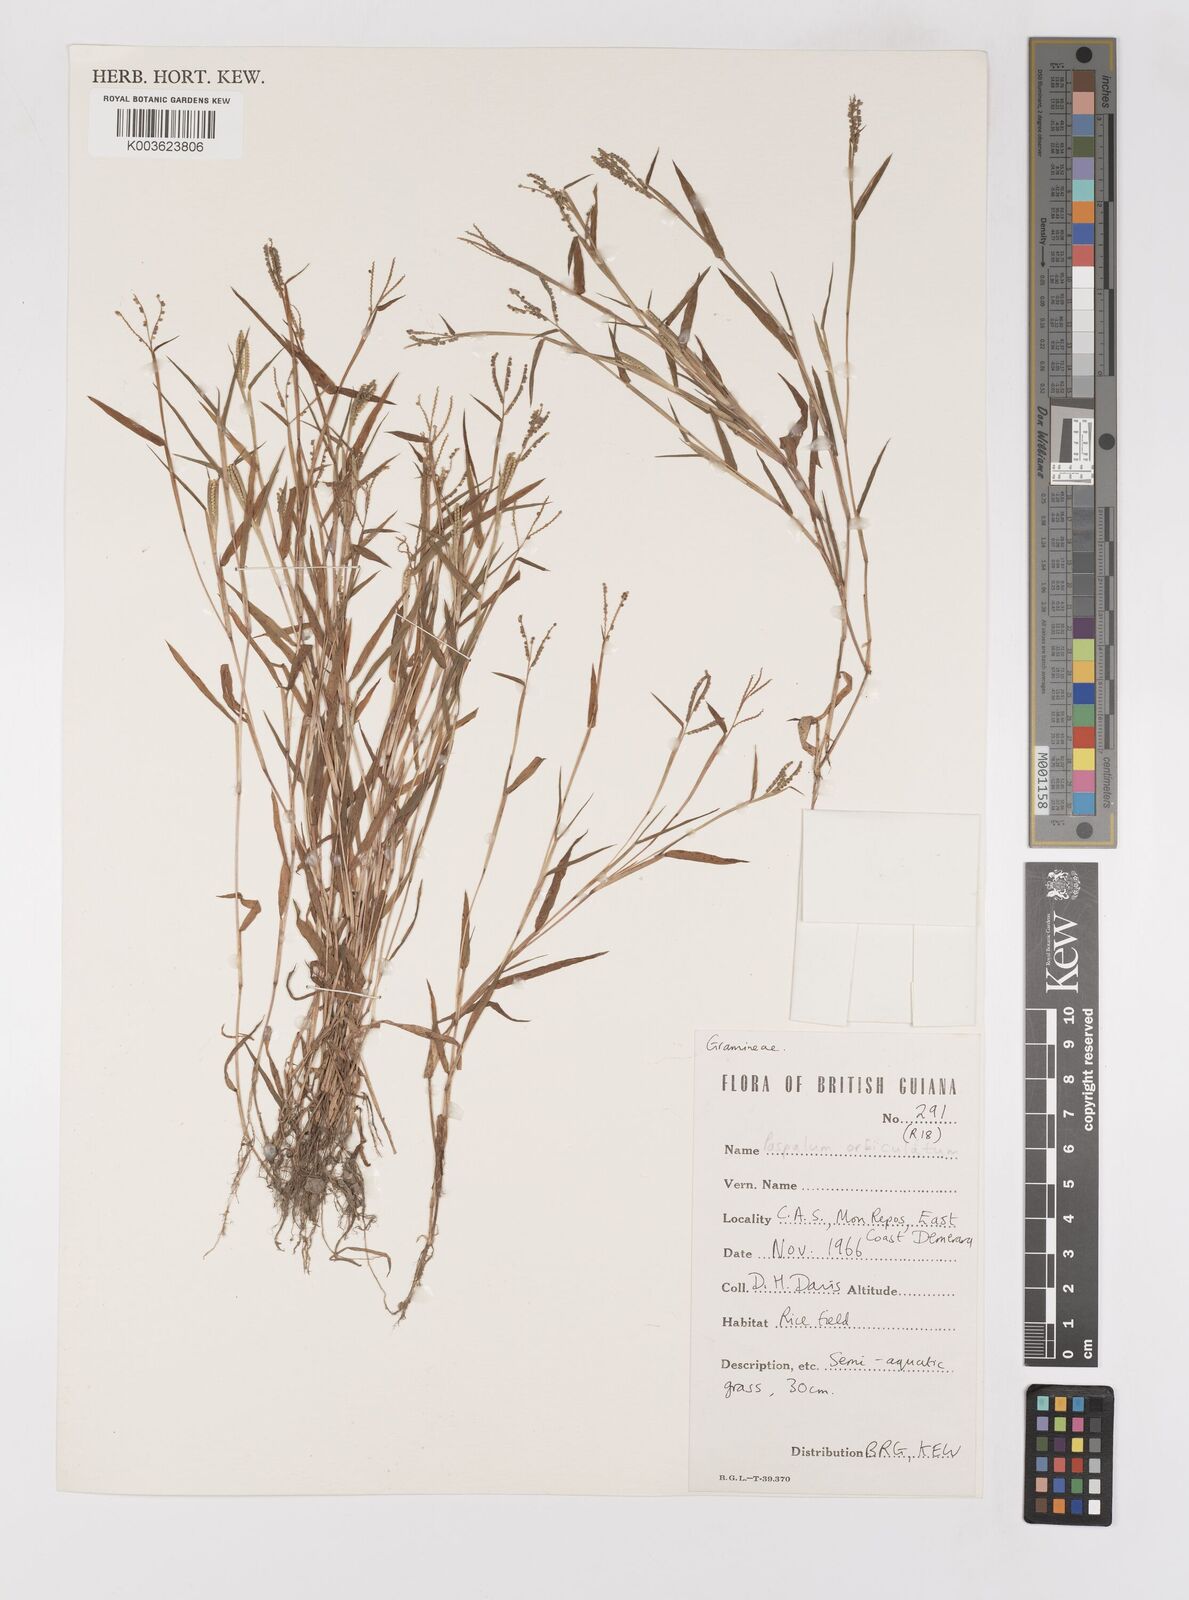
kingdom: Plantae
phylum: Tracheophyta
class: Liliopsida
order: Poales
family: Poaceae
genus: Paspalum
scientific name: Paspalum orbiculatum
